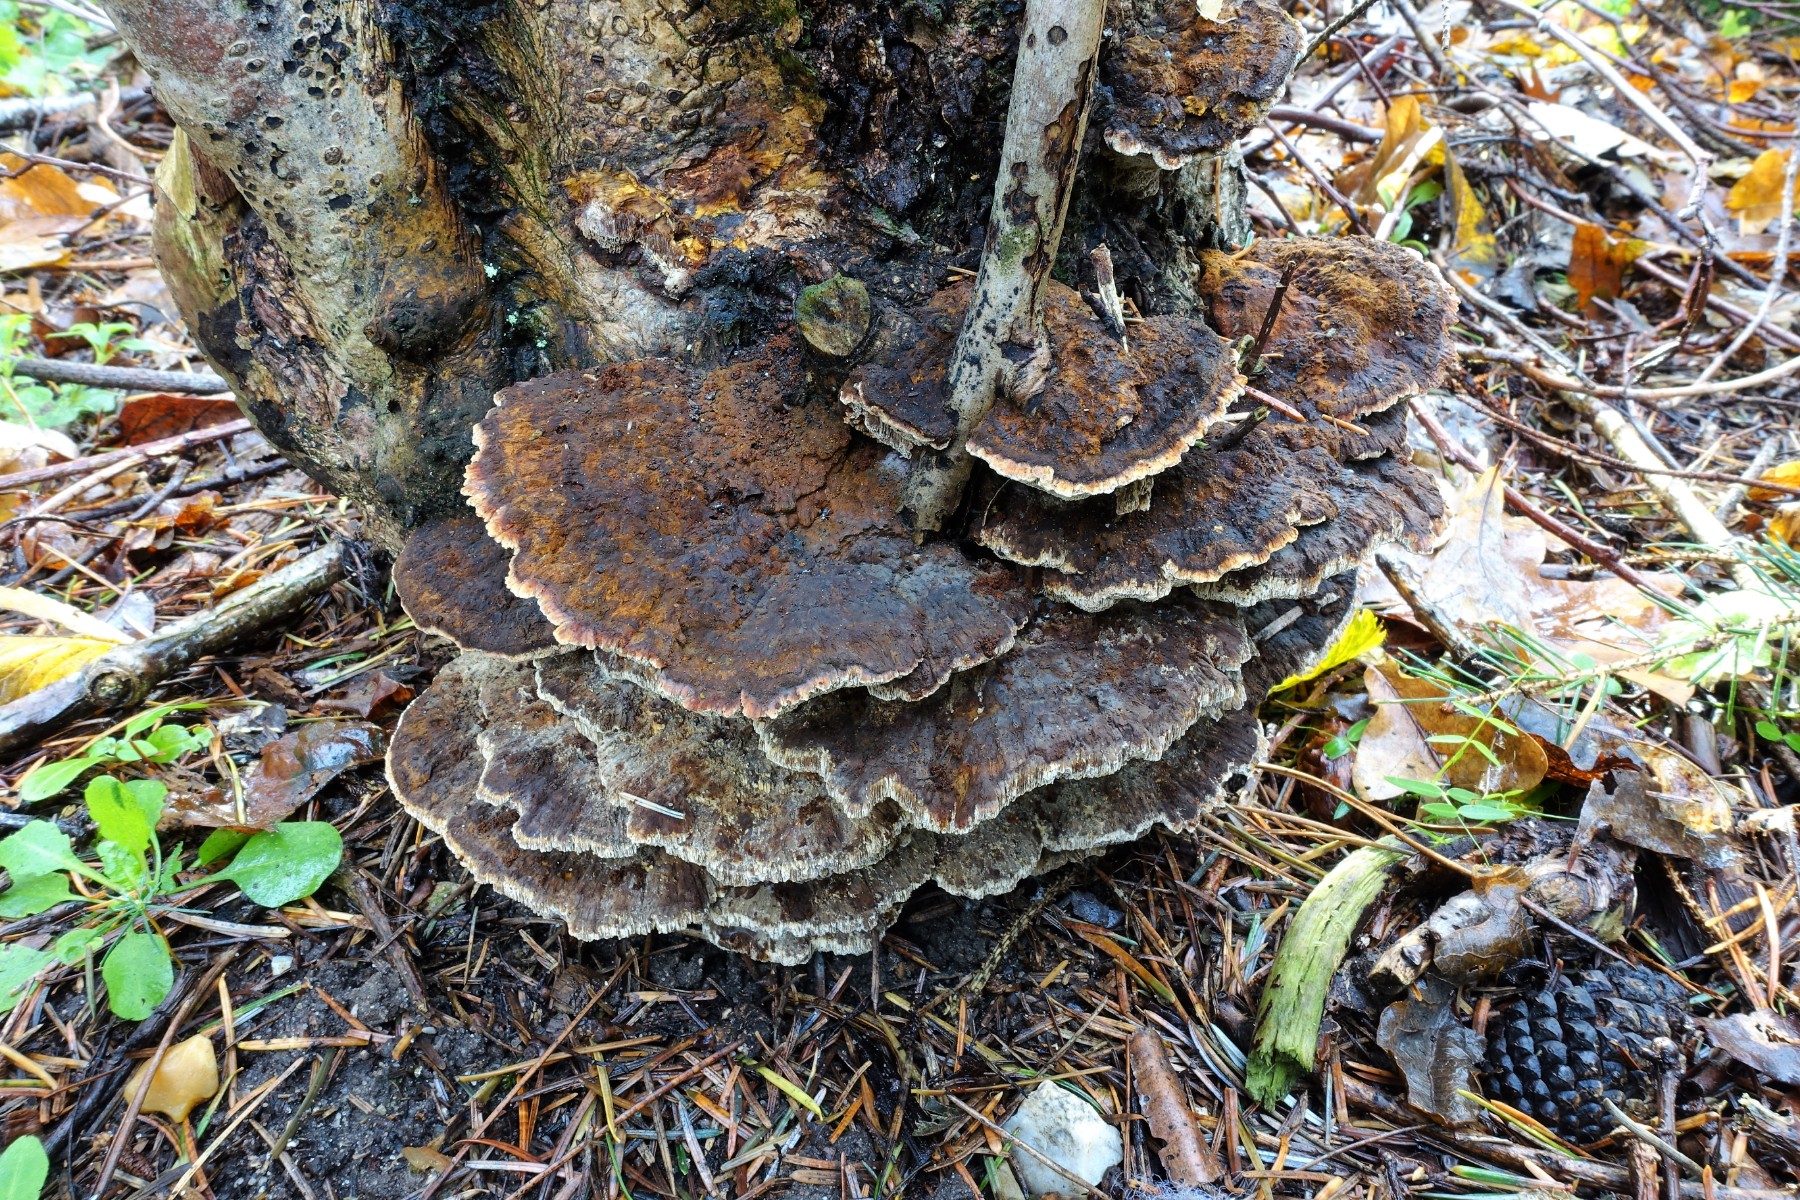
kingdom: Fungi
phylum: Basidiomycota
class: Agaricomycetes
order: Hymenochaetales
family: Hymenochaetaceae
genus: Xanthoporia
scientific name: Xanthoporia radiata
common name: elle-spejlporesvamp
